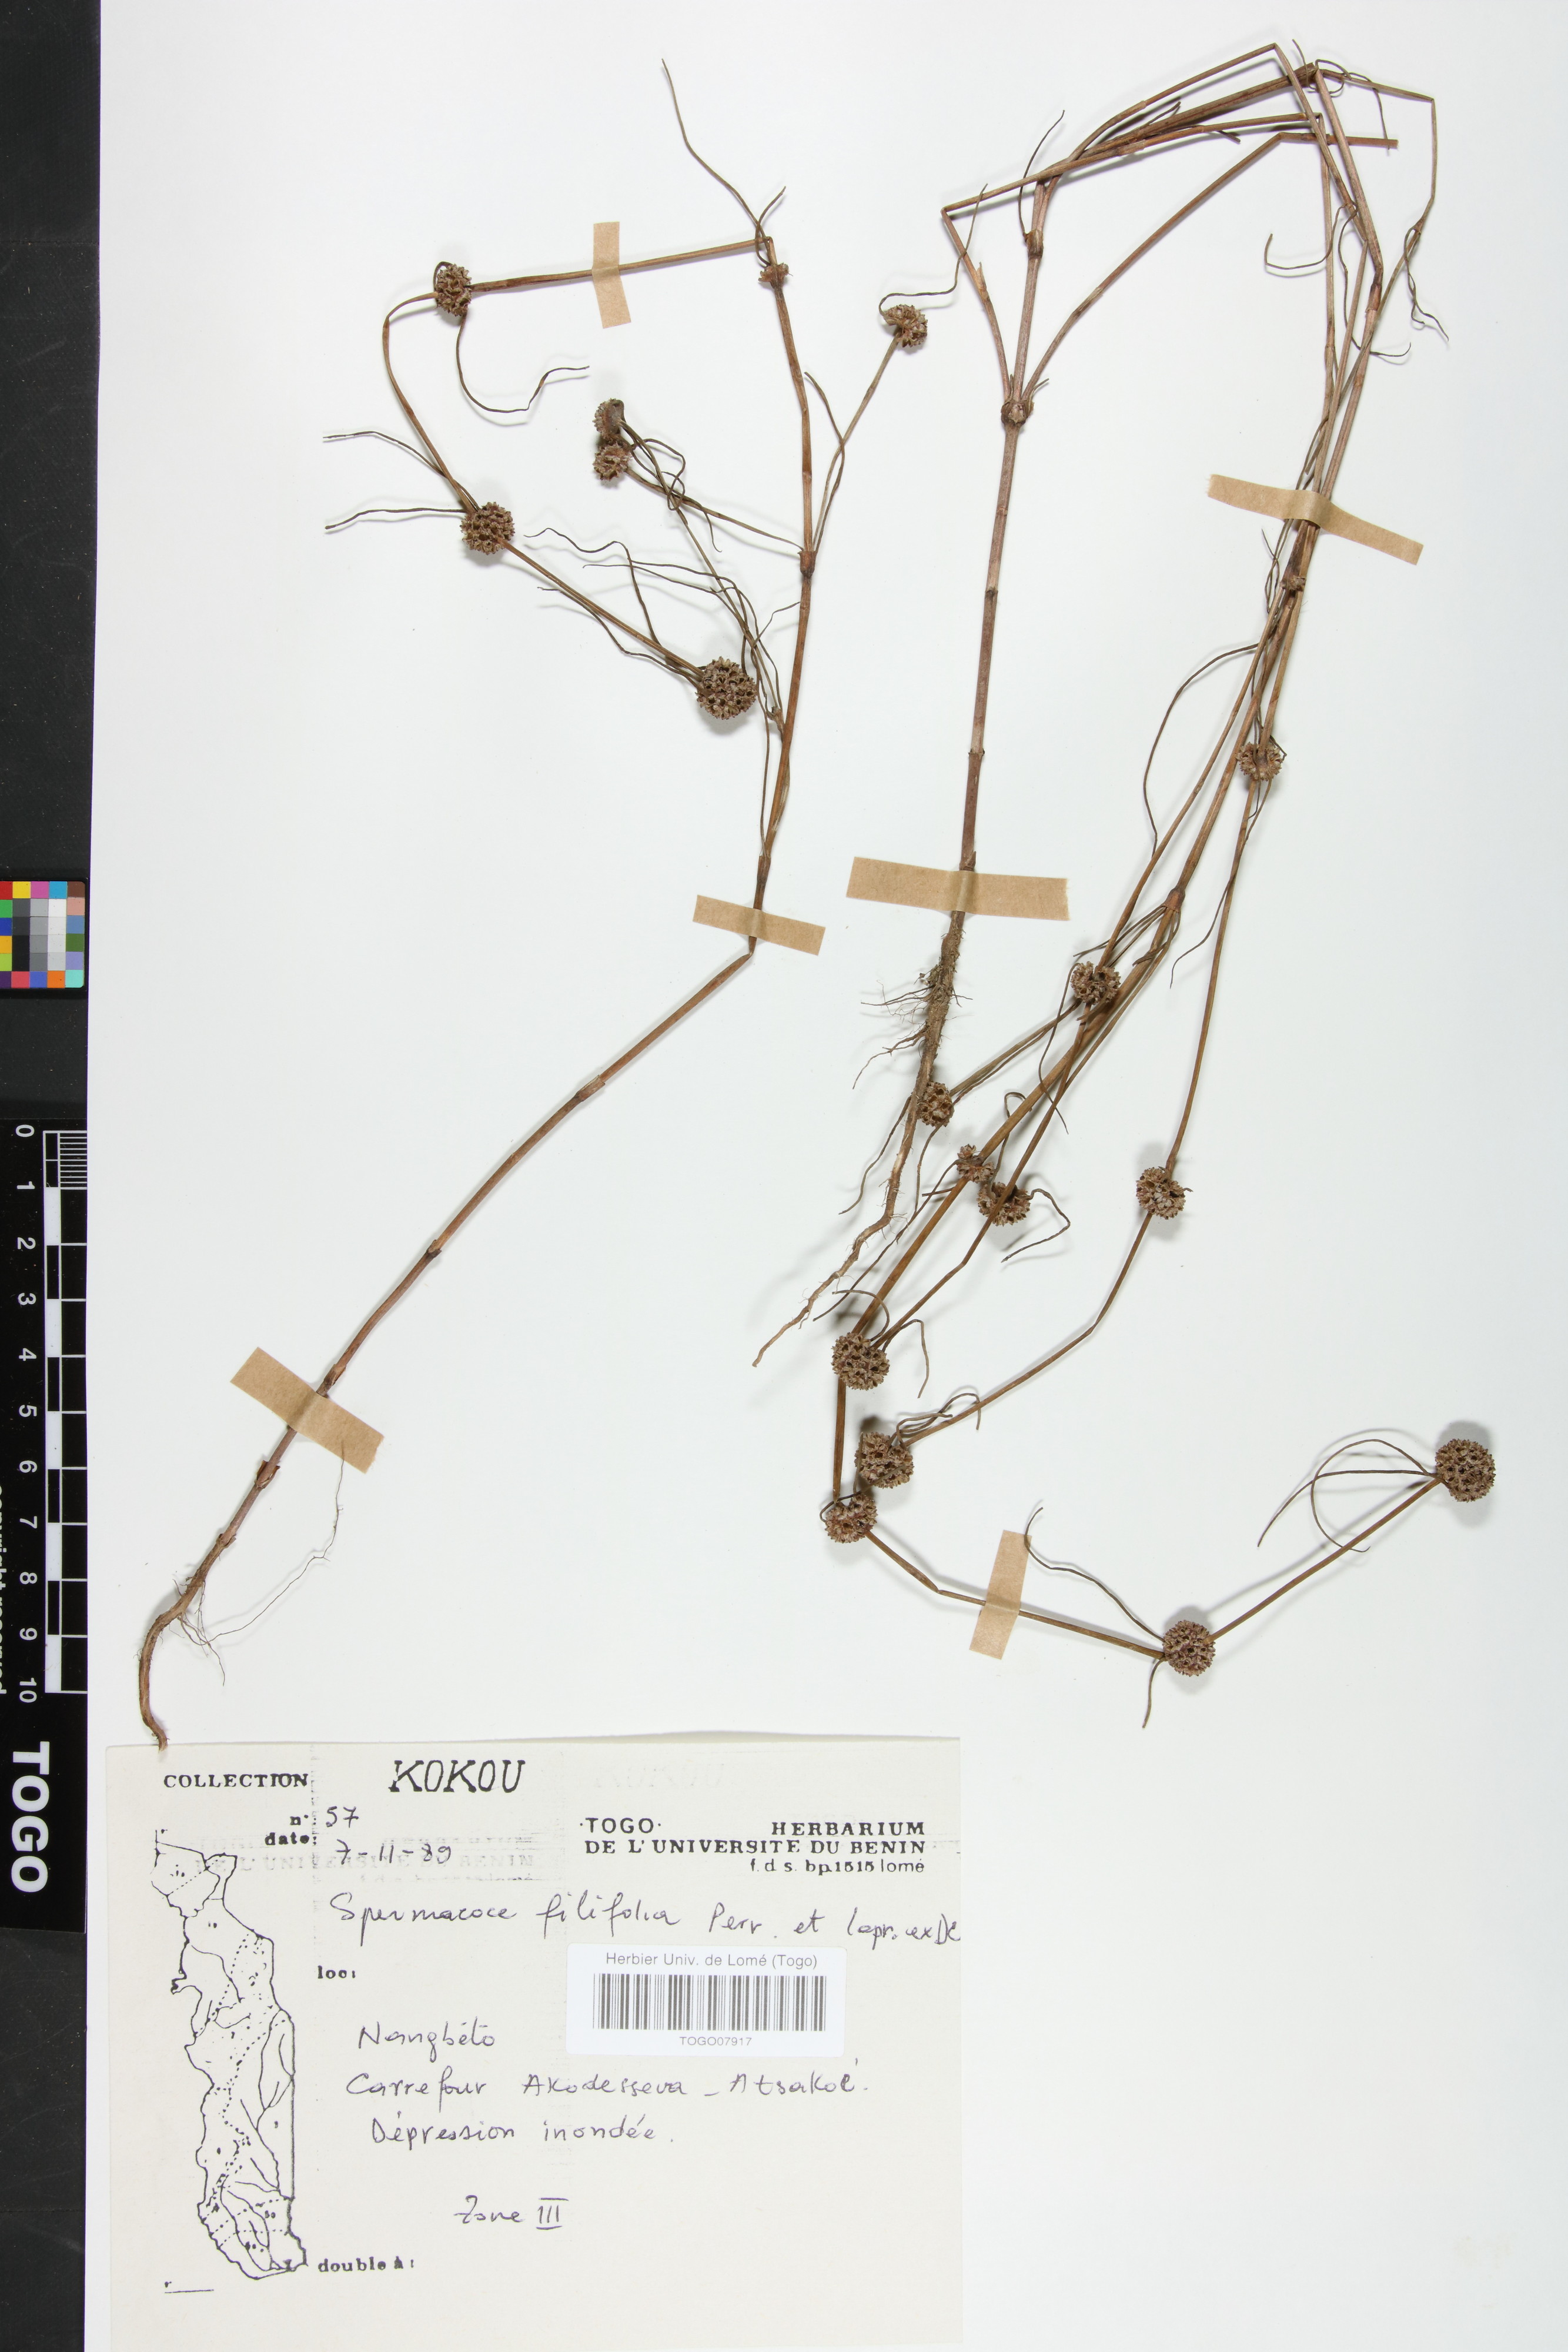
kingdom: Plantae
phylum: Tracheophyta
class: Magnoliopsida
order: Gentianales
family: Rubiaceae
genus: Spermacoce
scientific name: Spermacoce filifolia
